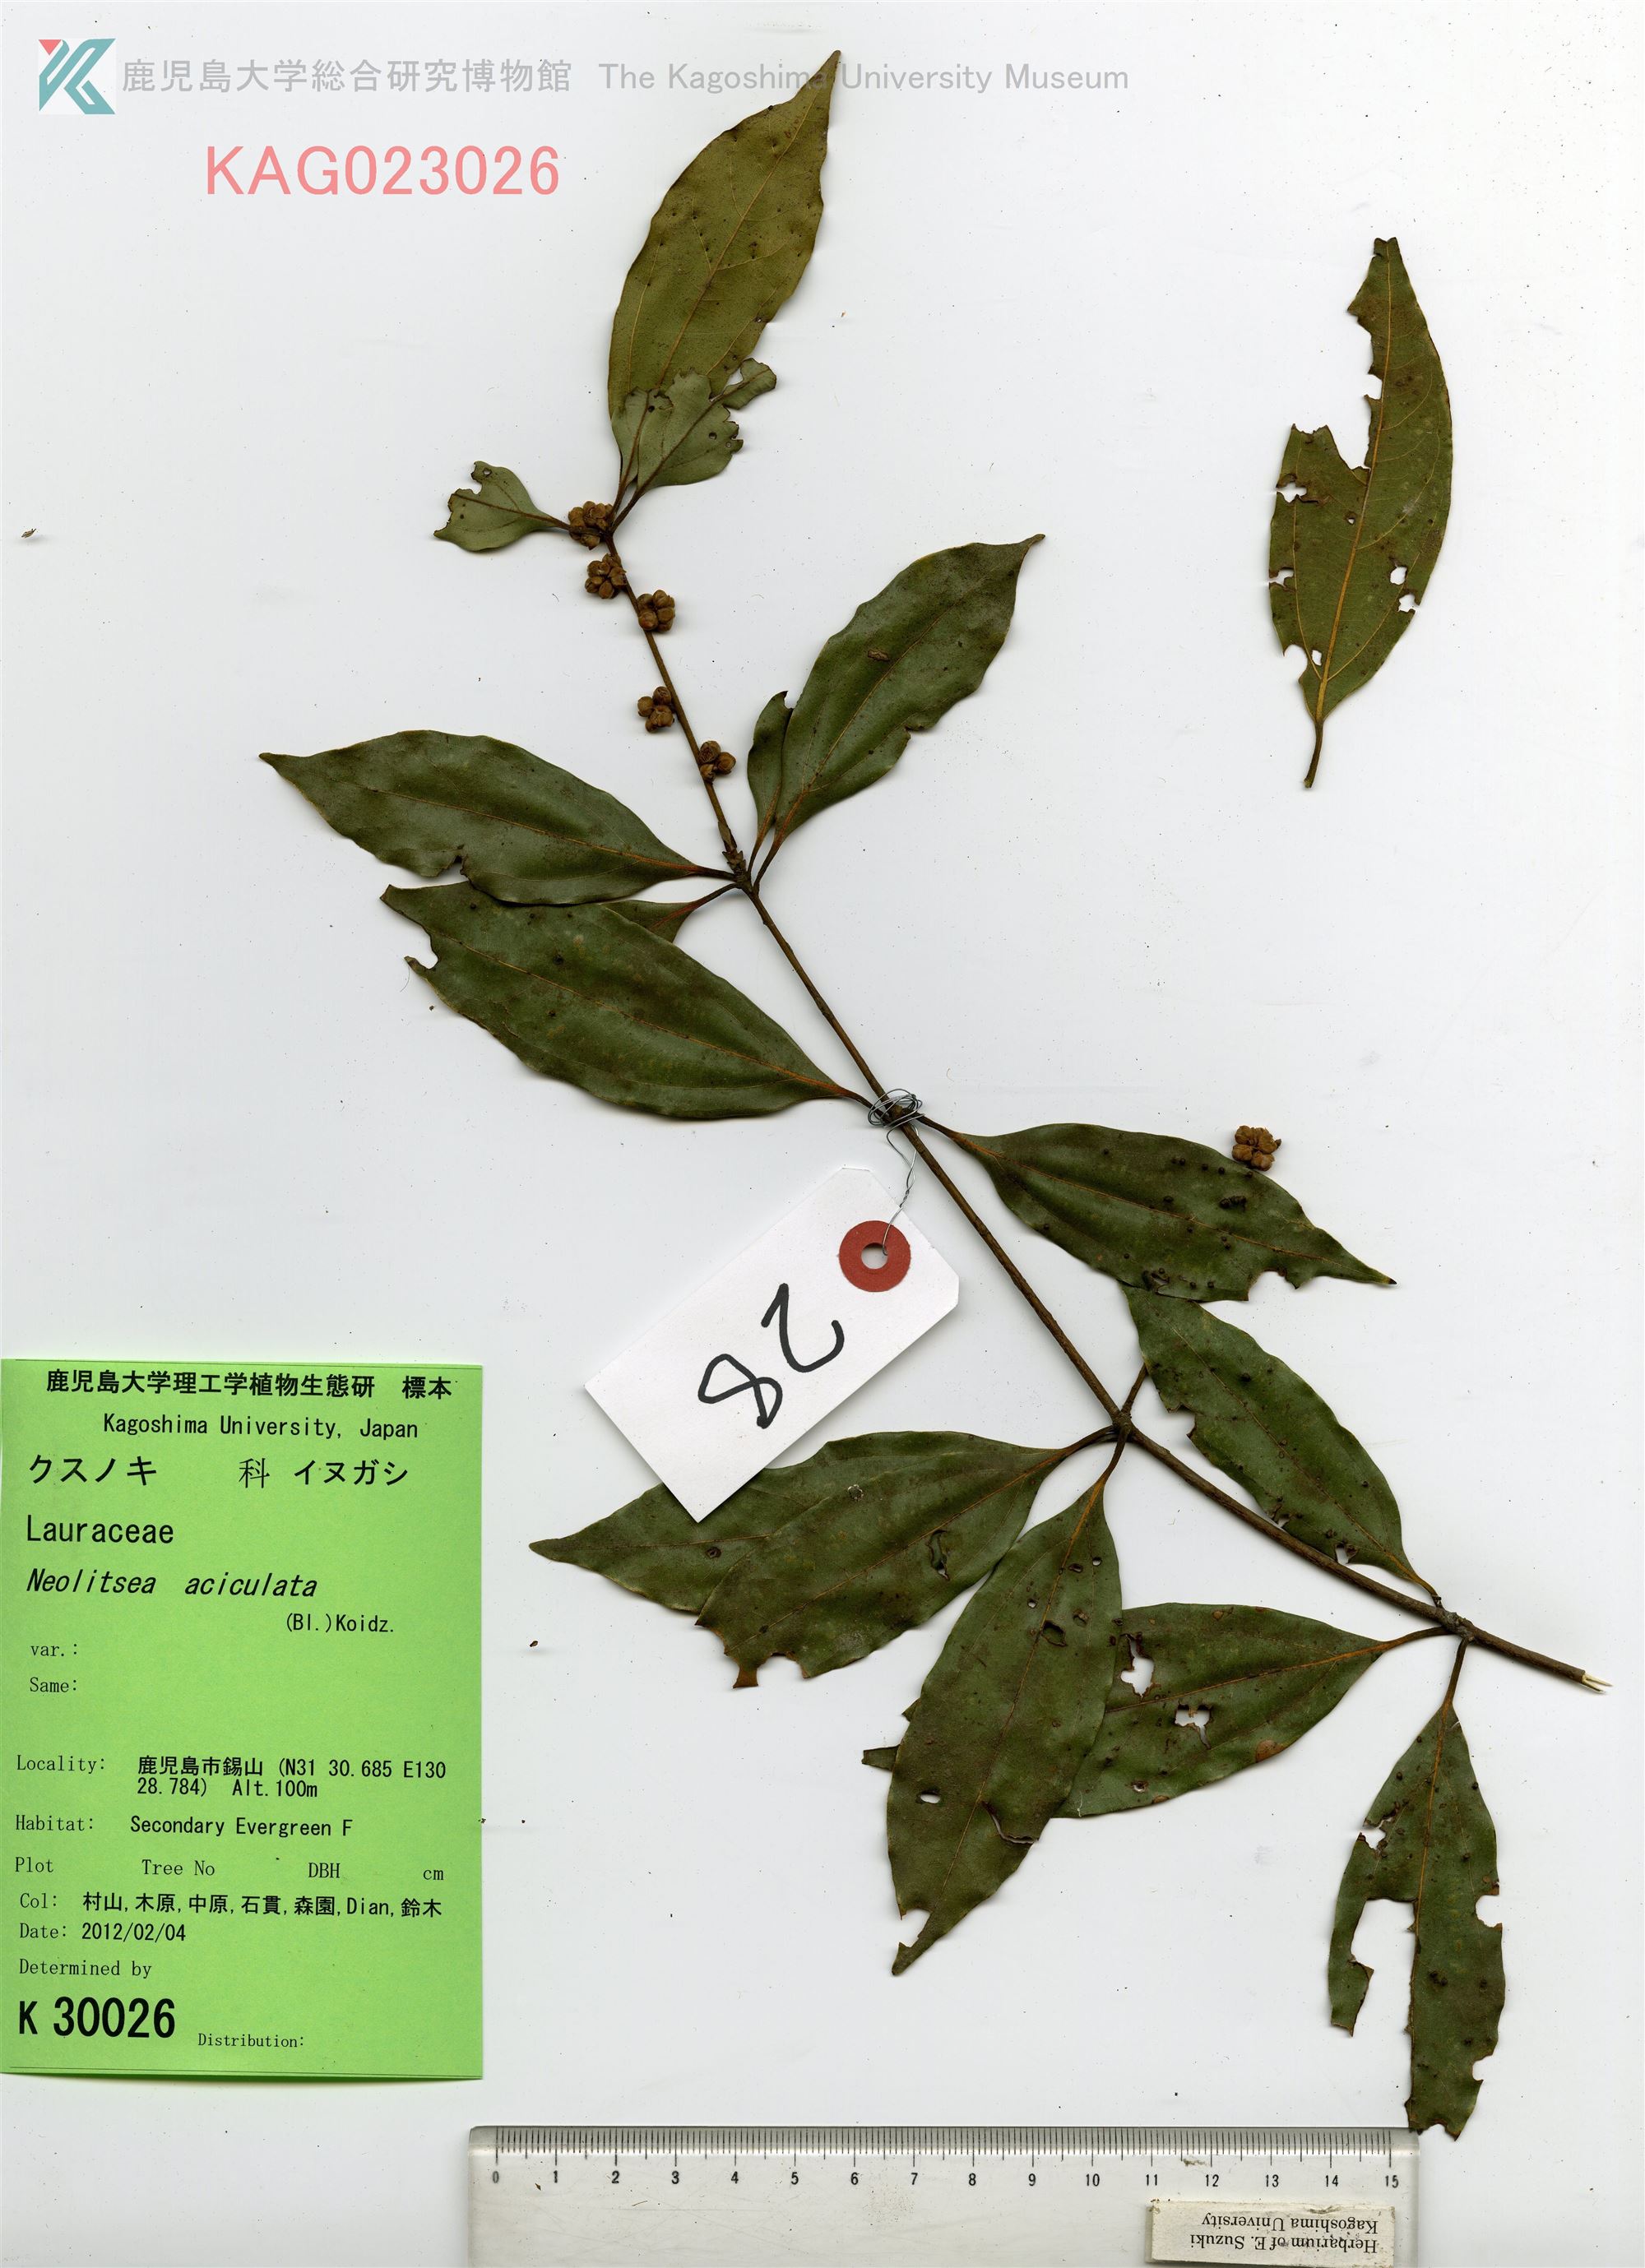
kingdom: Plantae
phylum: Tracheophyta
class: Magnoliopsida
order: Laurales
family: Lauraceae
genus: Neolitsea
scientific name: Neolitsea aciculata
